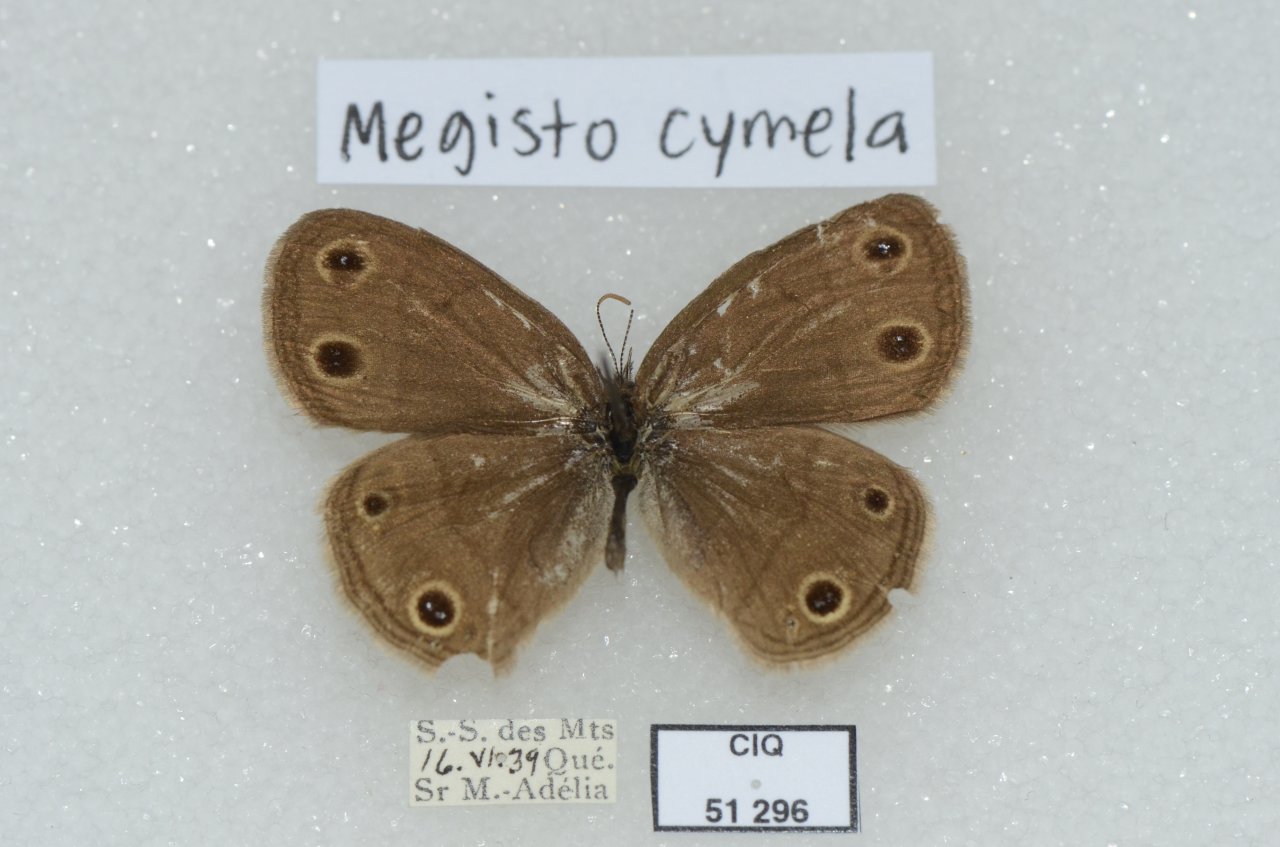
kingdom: Animalia
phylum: Arthropoda
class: Insecta
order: Lepidoptera
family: Nymphalidae
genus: Euptychia
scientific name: Euptychia cymela
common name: Little Wood Satyr
